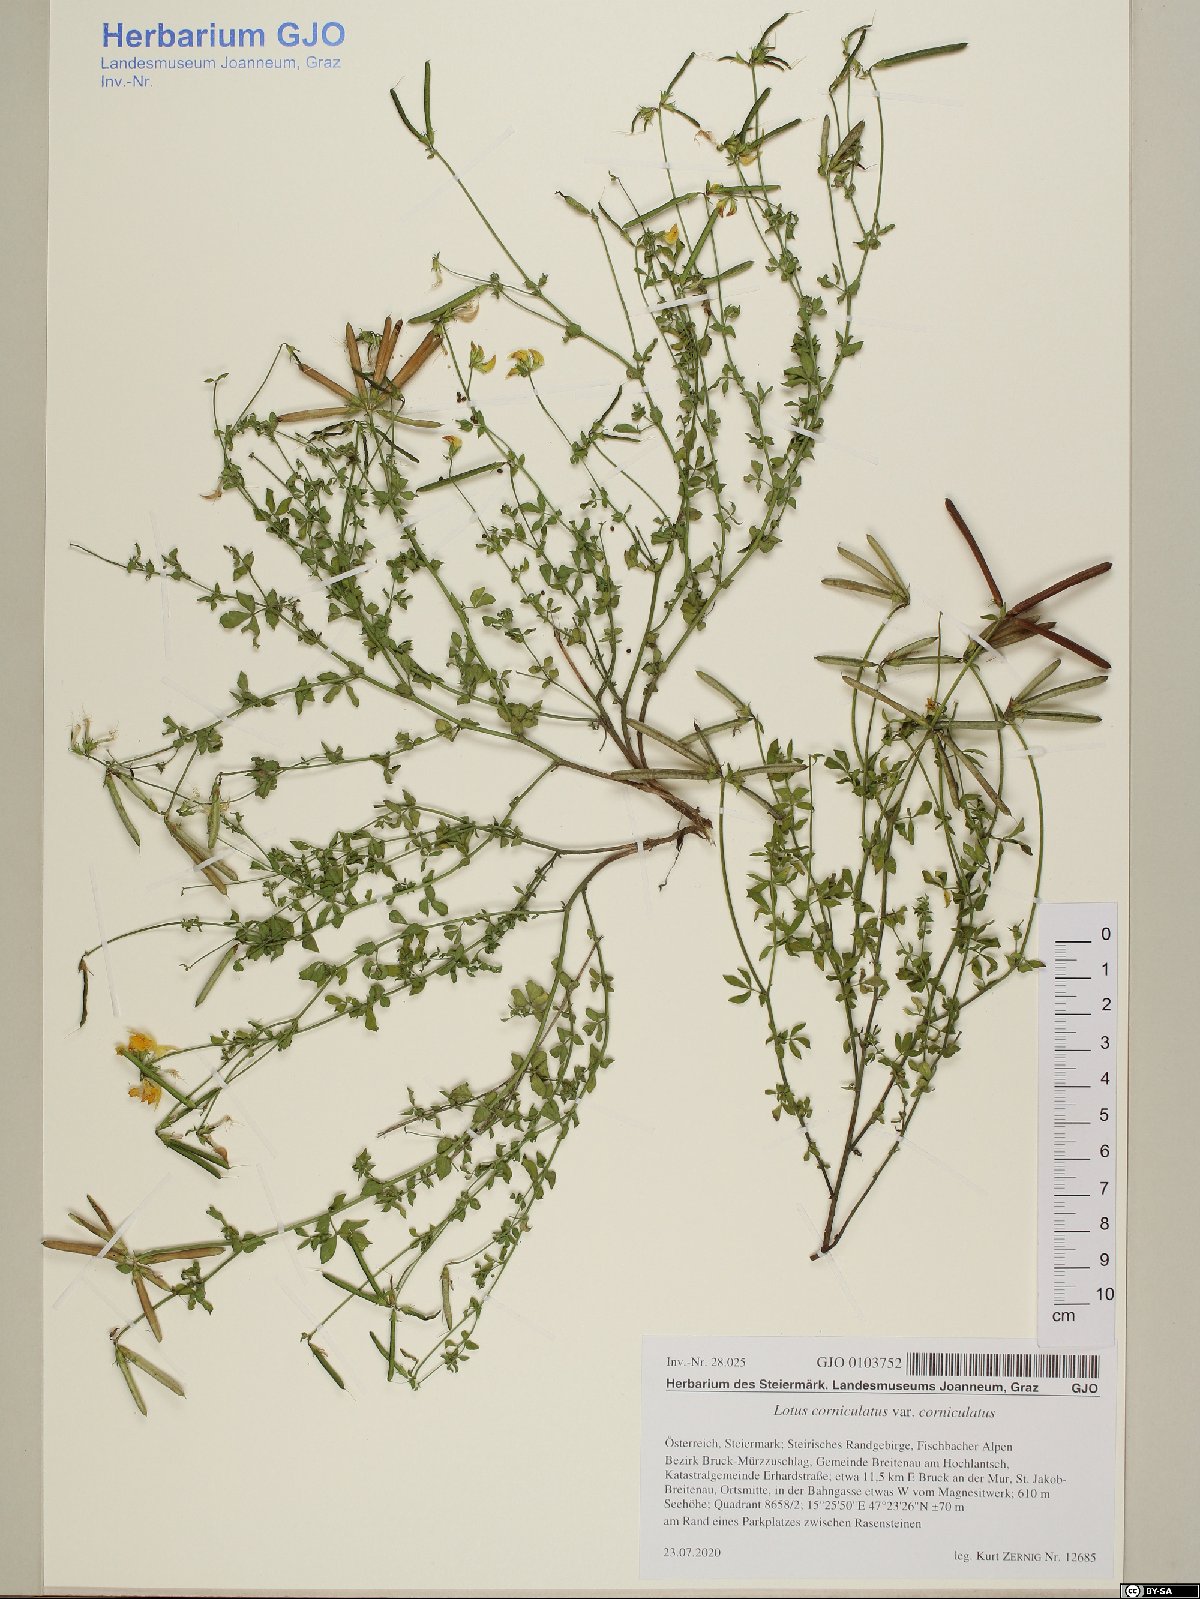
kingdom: Plantae
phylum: Tracheophyta
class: Magnoliopsida
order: Fabales
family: Fabaceae
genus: Lotus
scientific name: Lotus corniculatus
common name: Common bird's-foot-trefoil
